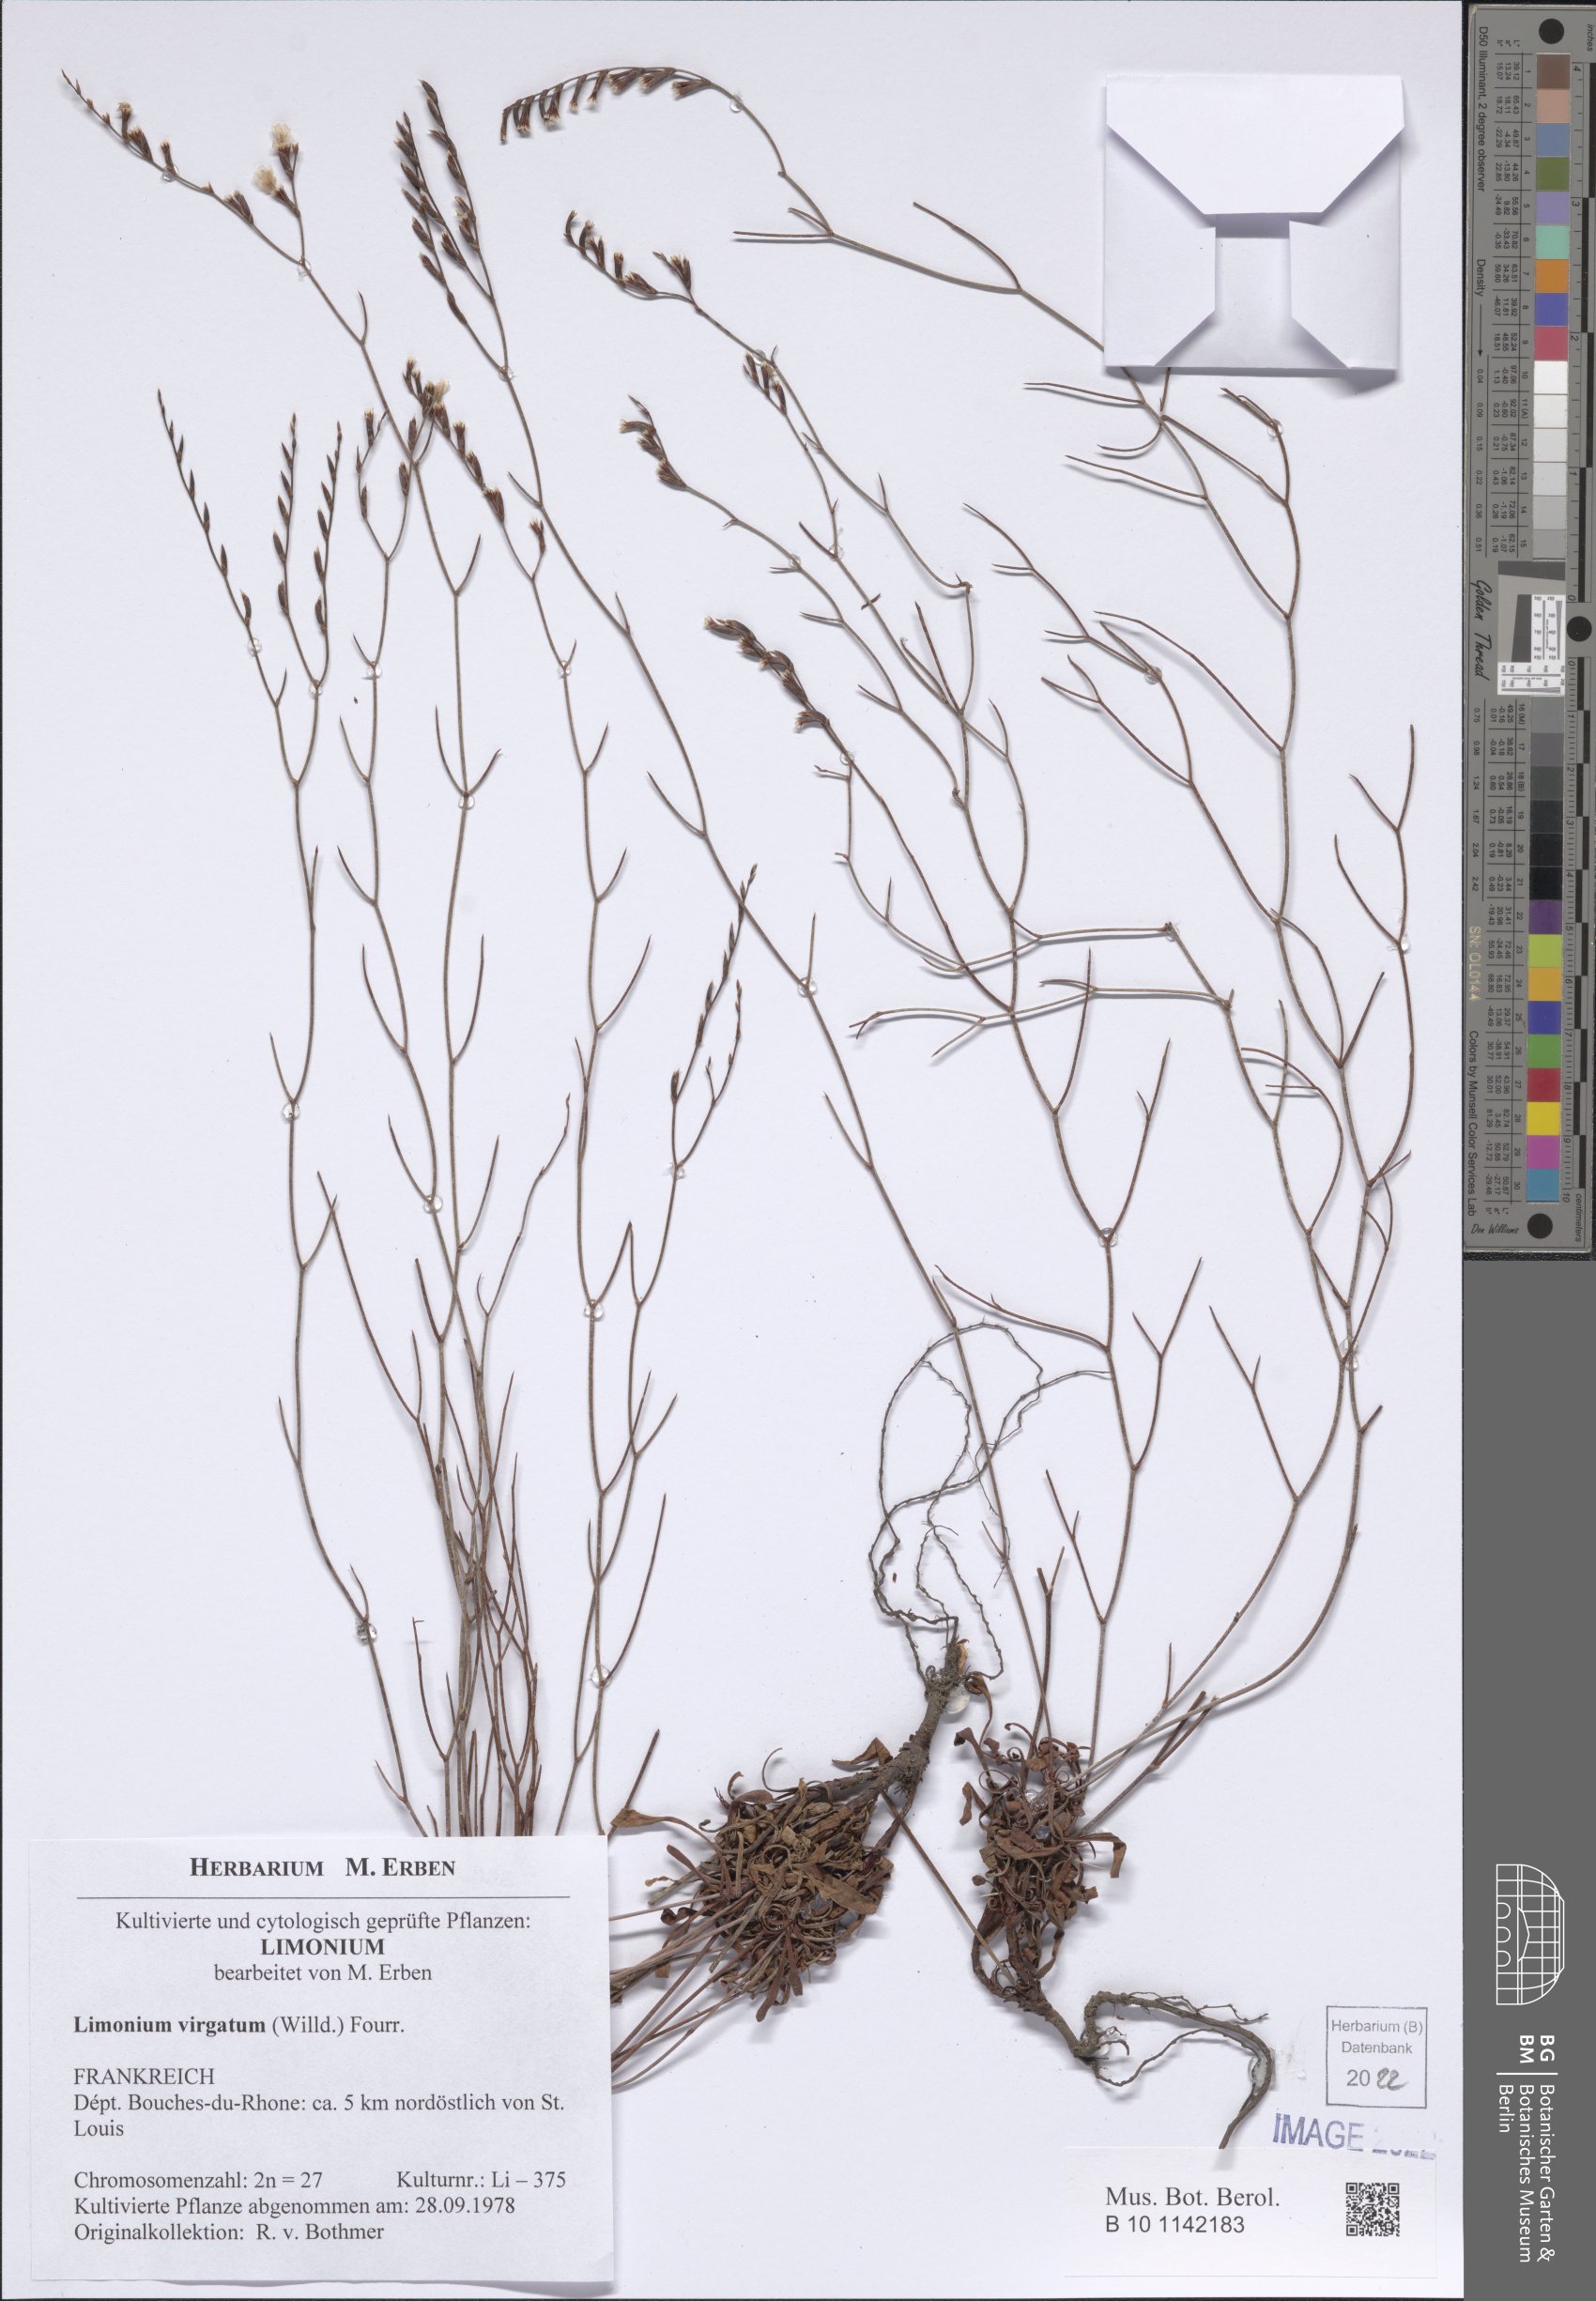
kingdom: Plantae
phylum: Tracheophyta
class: Magnoliopsida
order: Caryophyllales
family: Plumbaginaceae
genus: Limonium
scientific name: Limonium virgatum
